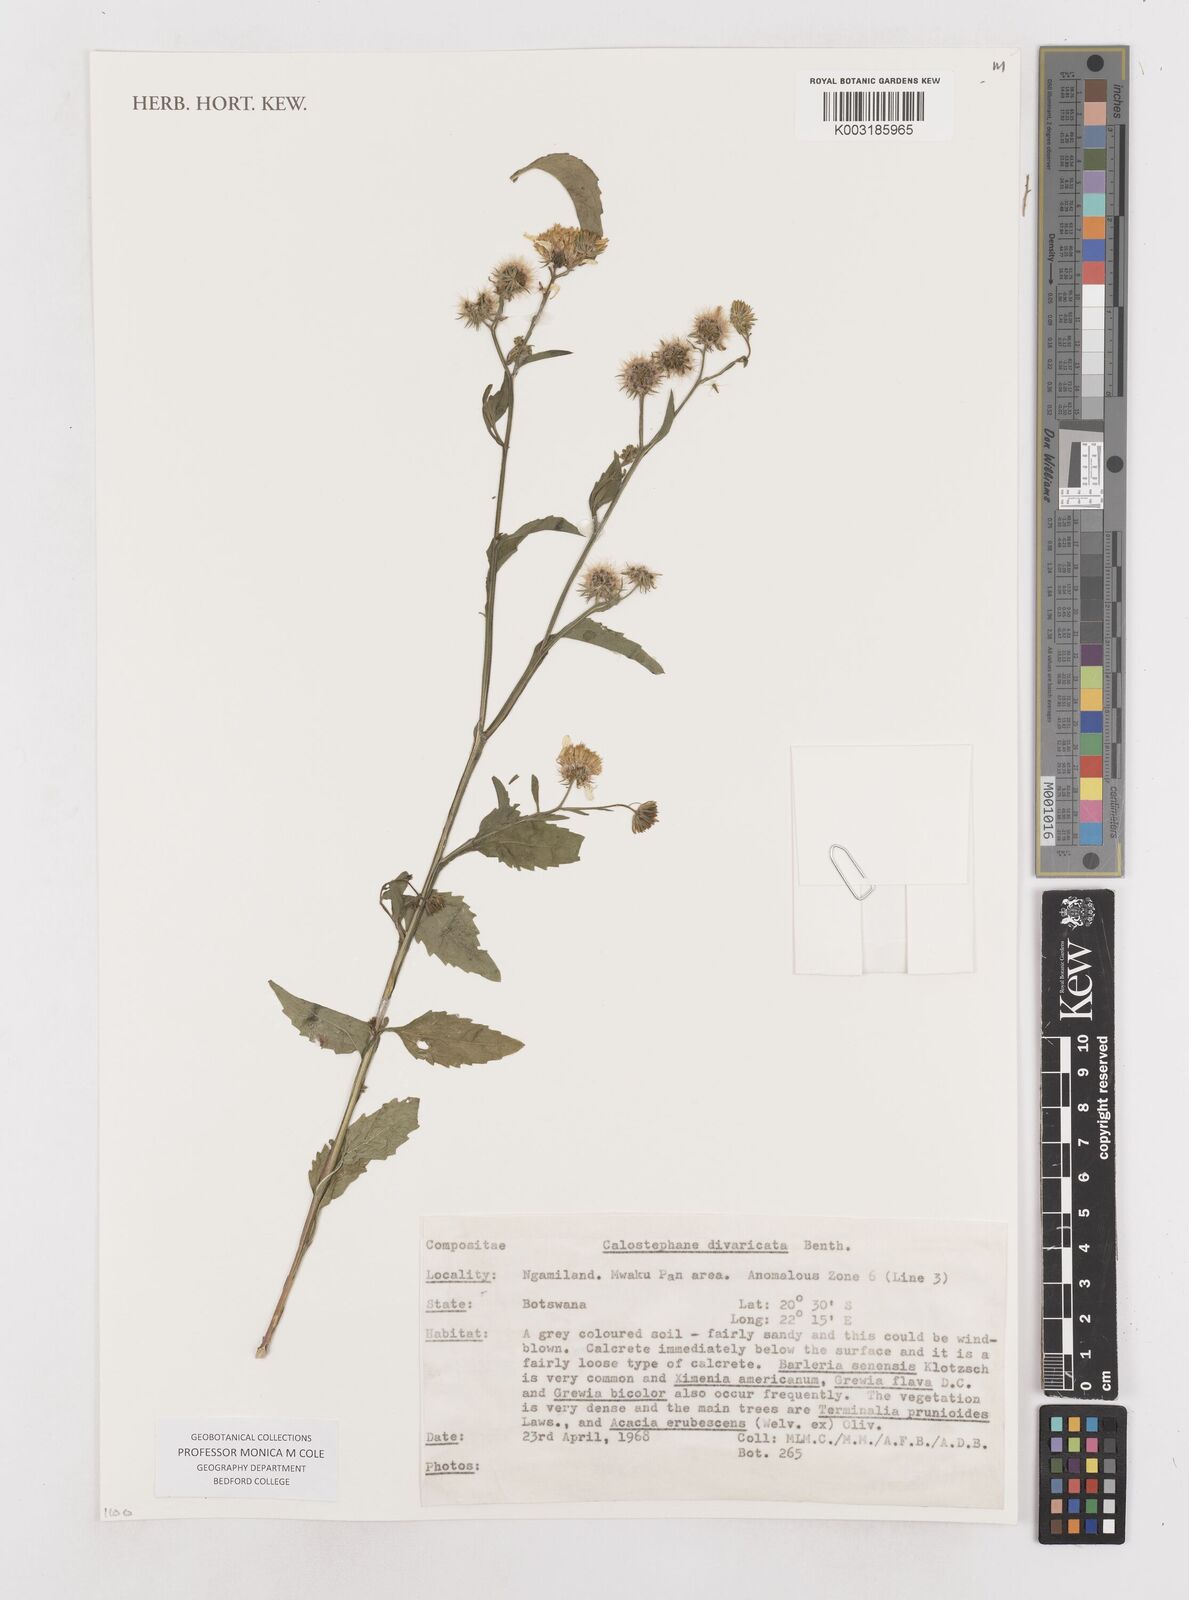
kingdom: Plantae
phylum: Tracheophyta
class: Magnoliopsida
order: Asterales
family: Asteraceae
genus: Calostephane
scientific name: Calostephane divaricata
